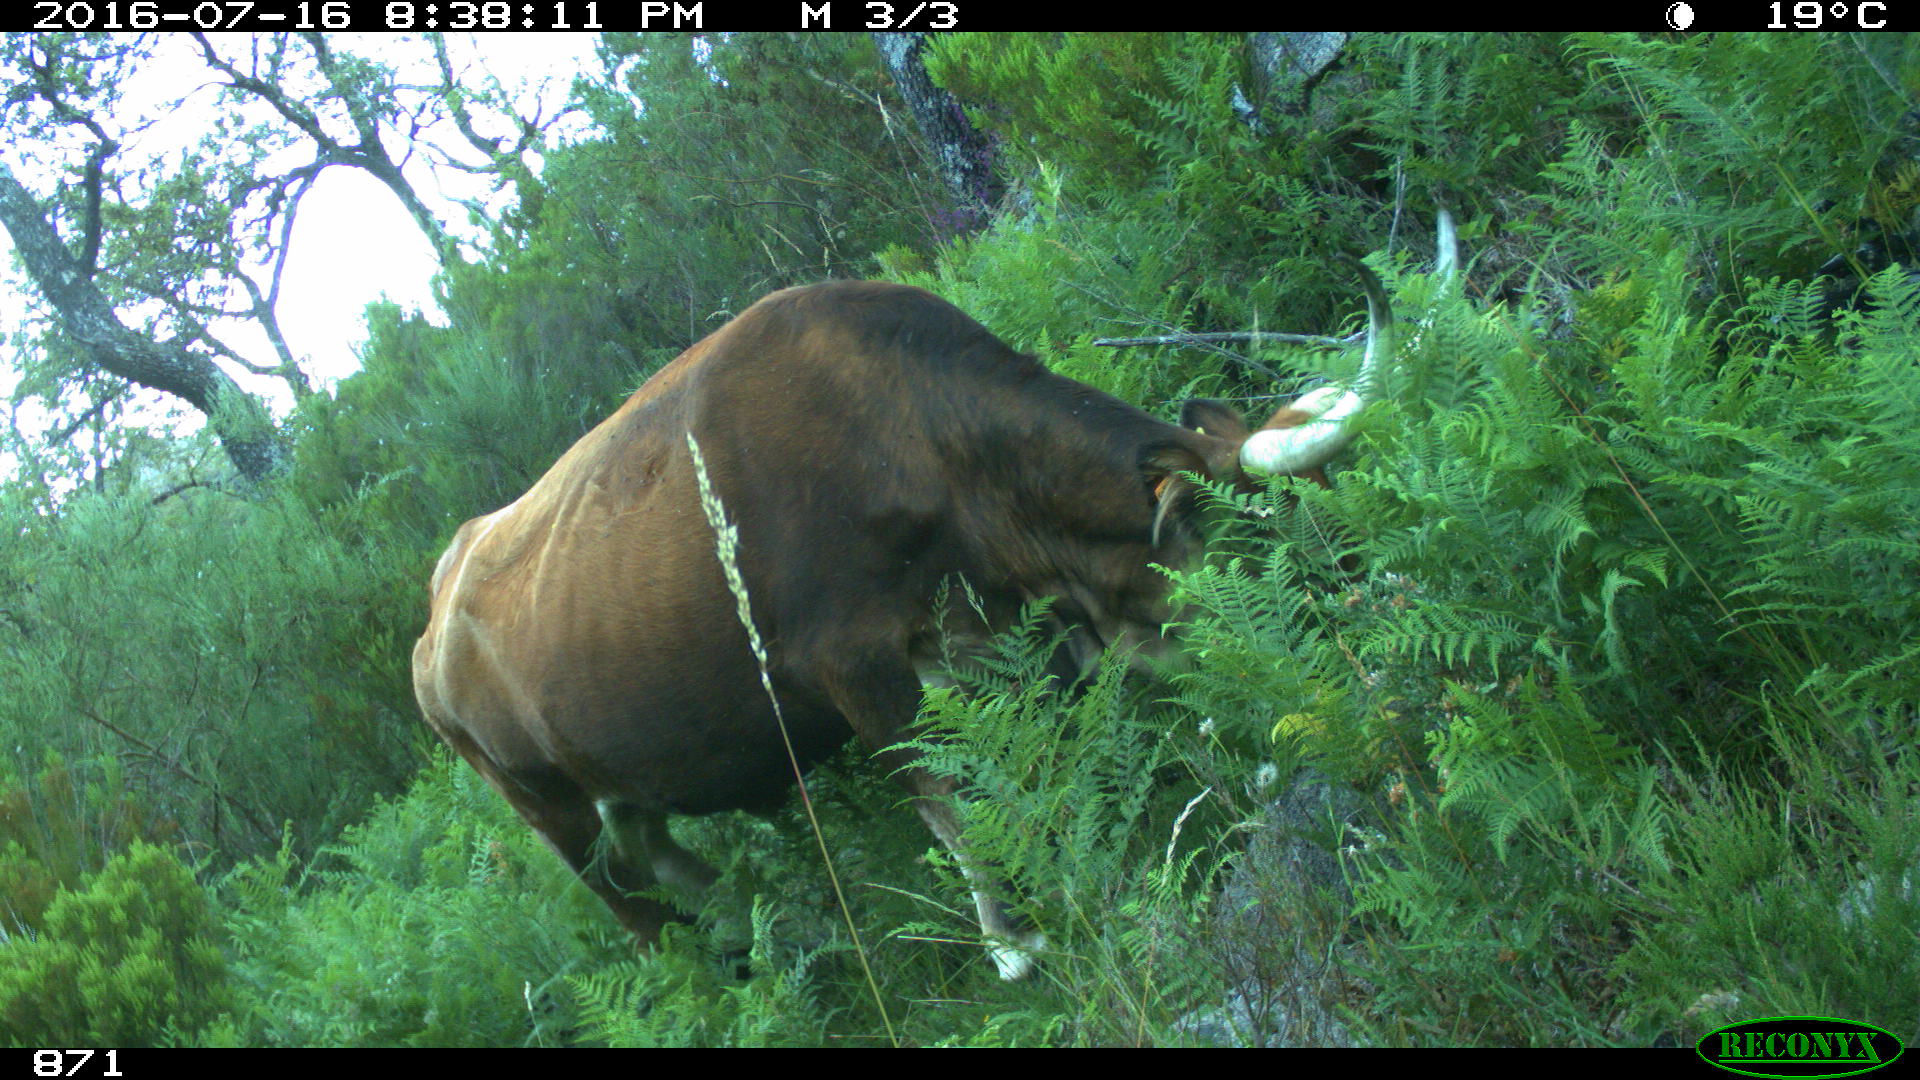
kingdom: Animalia
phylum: Chordata
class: Mammalia
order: Artiodactyla
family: Bovidae
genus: Bos
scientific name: Bos taurus
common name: Domesticated cattle
